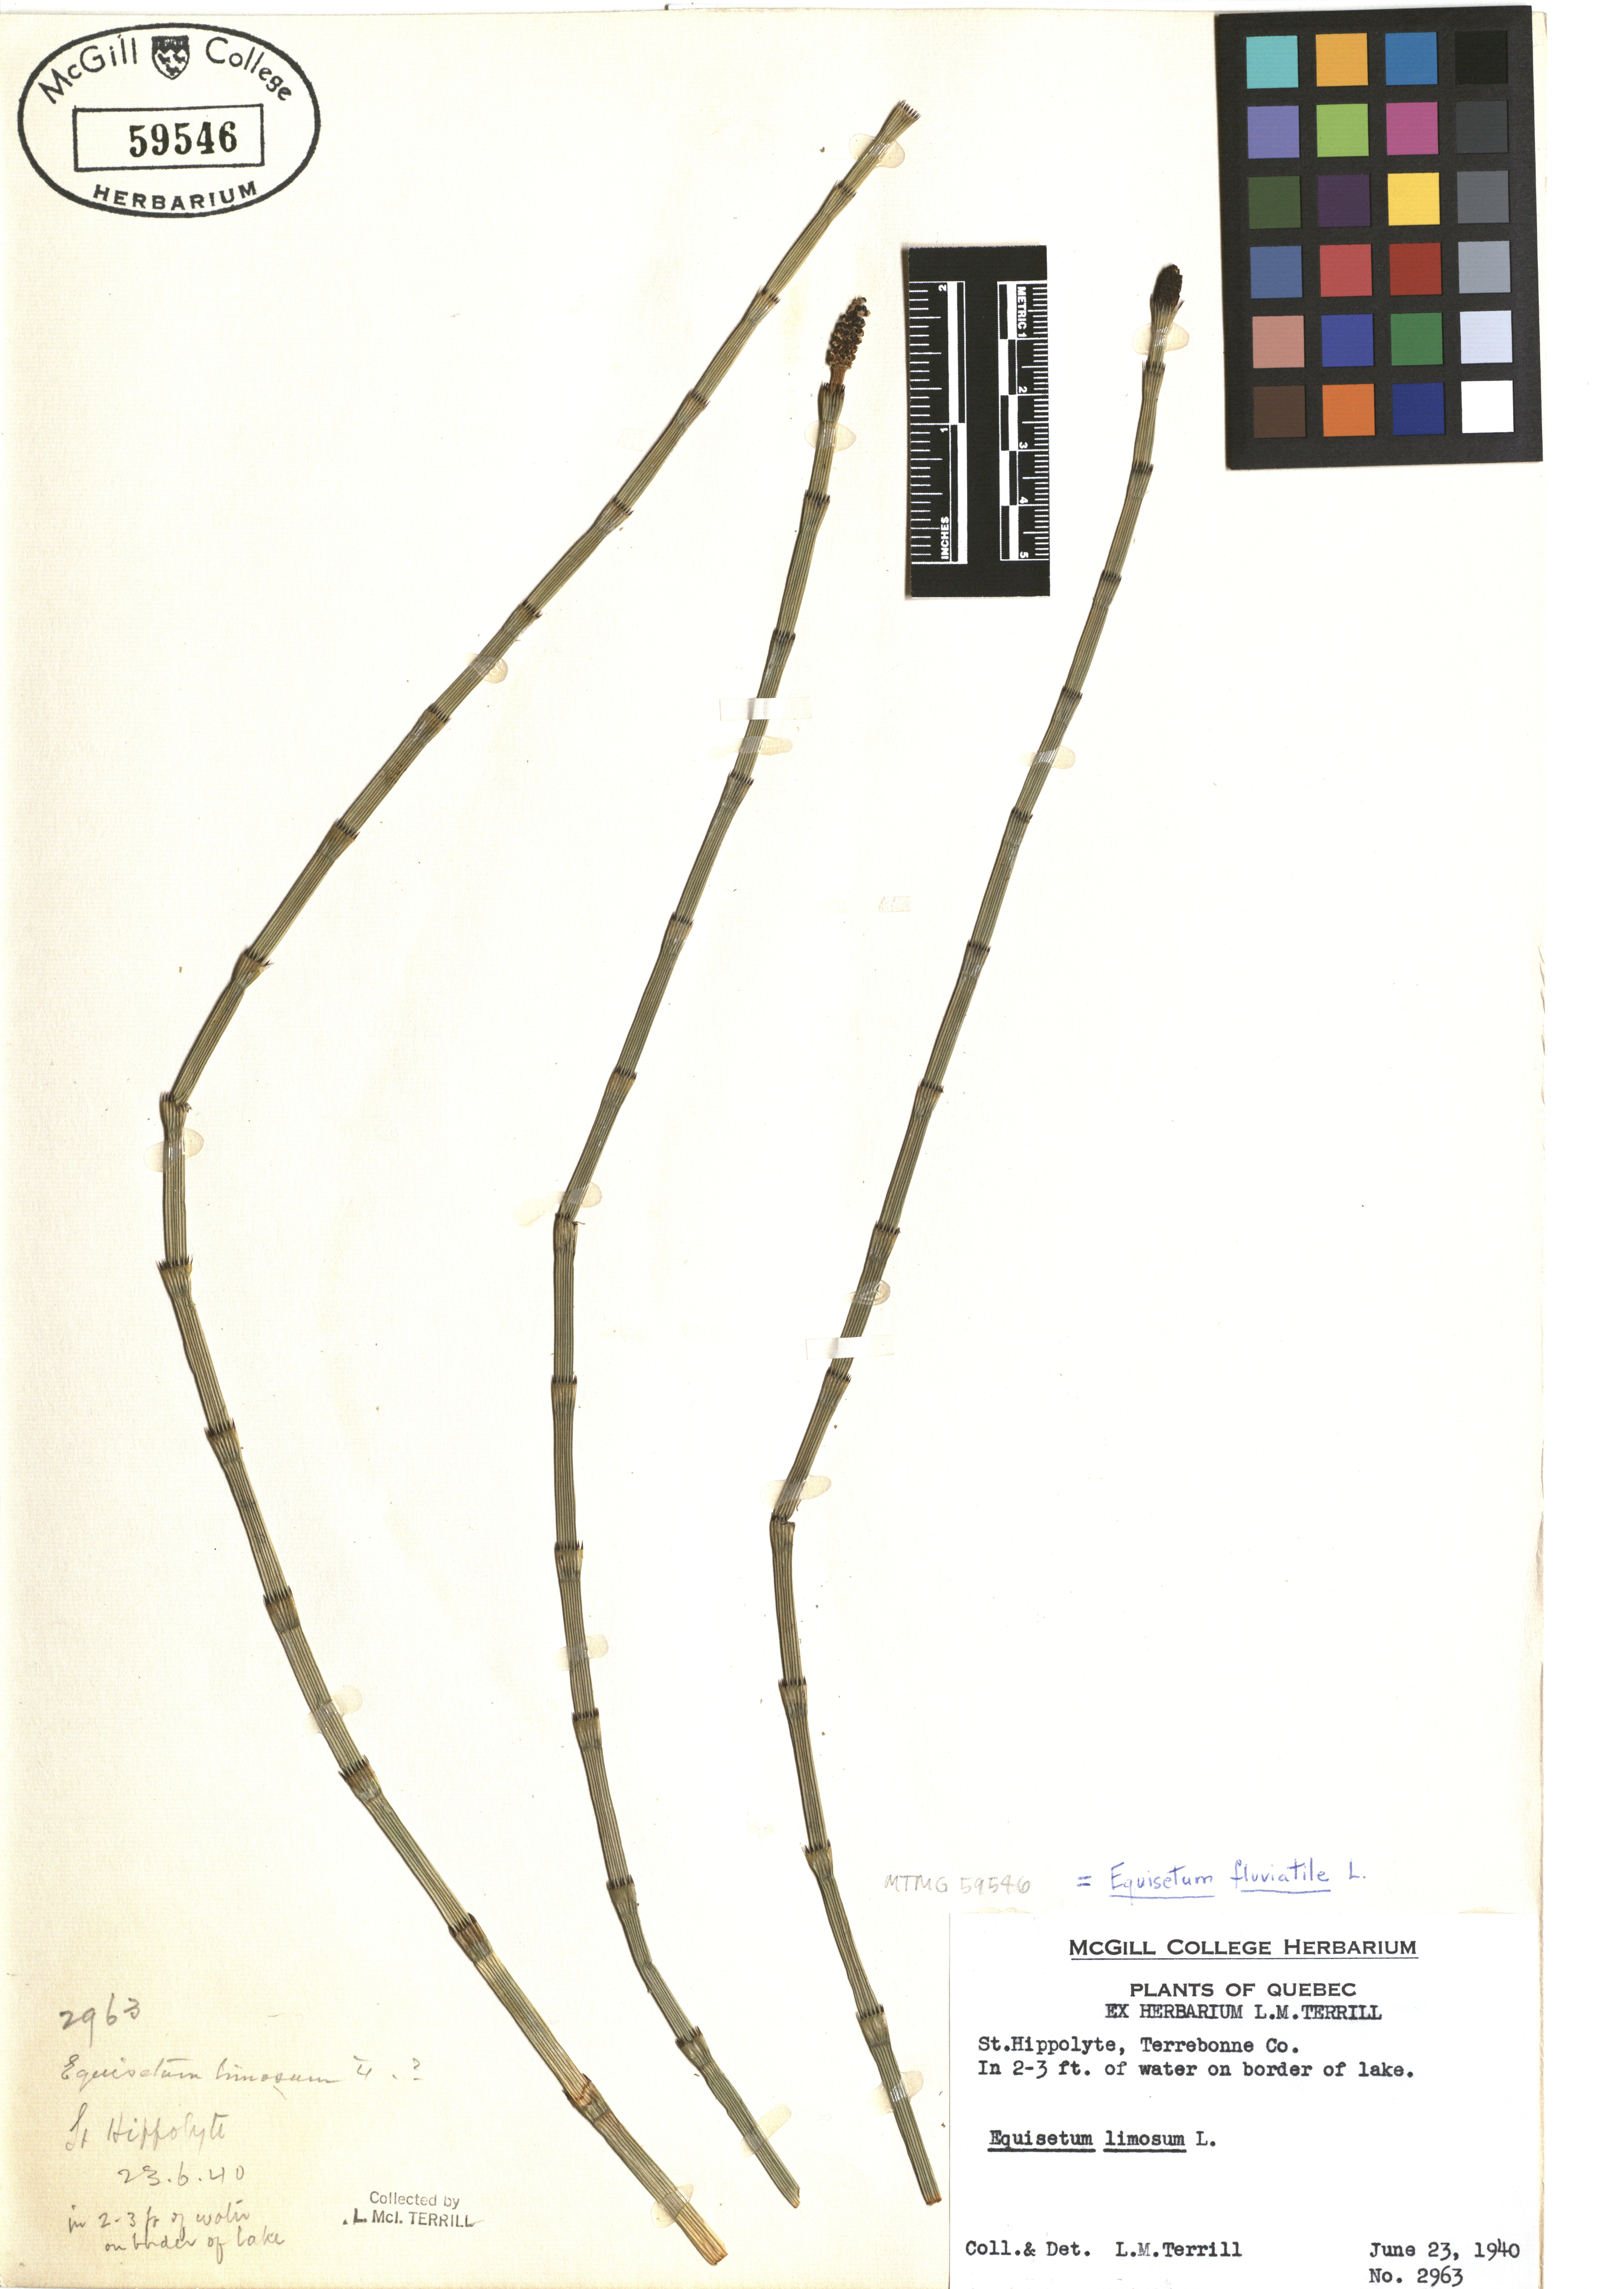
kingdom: Plantae
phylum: Tracheophyta
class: Polypodiopsida
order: Equisetales
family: Equisetaceae
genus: Equisetum
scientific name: Equisetum fluviatile
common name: Water horsetail
